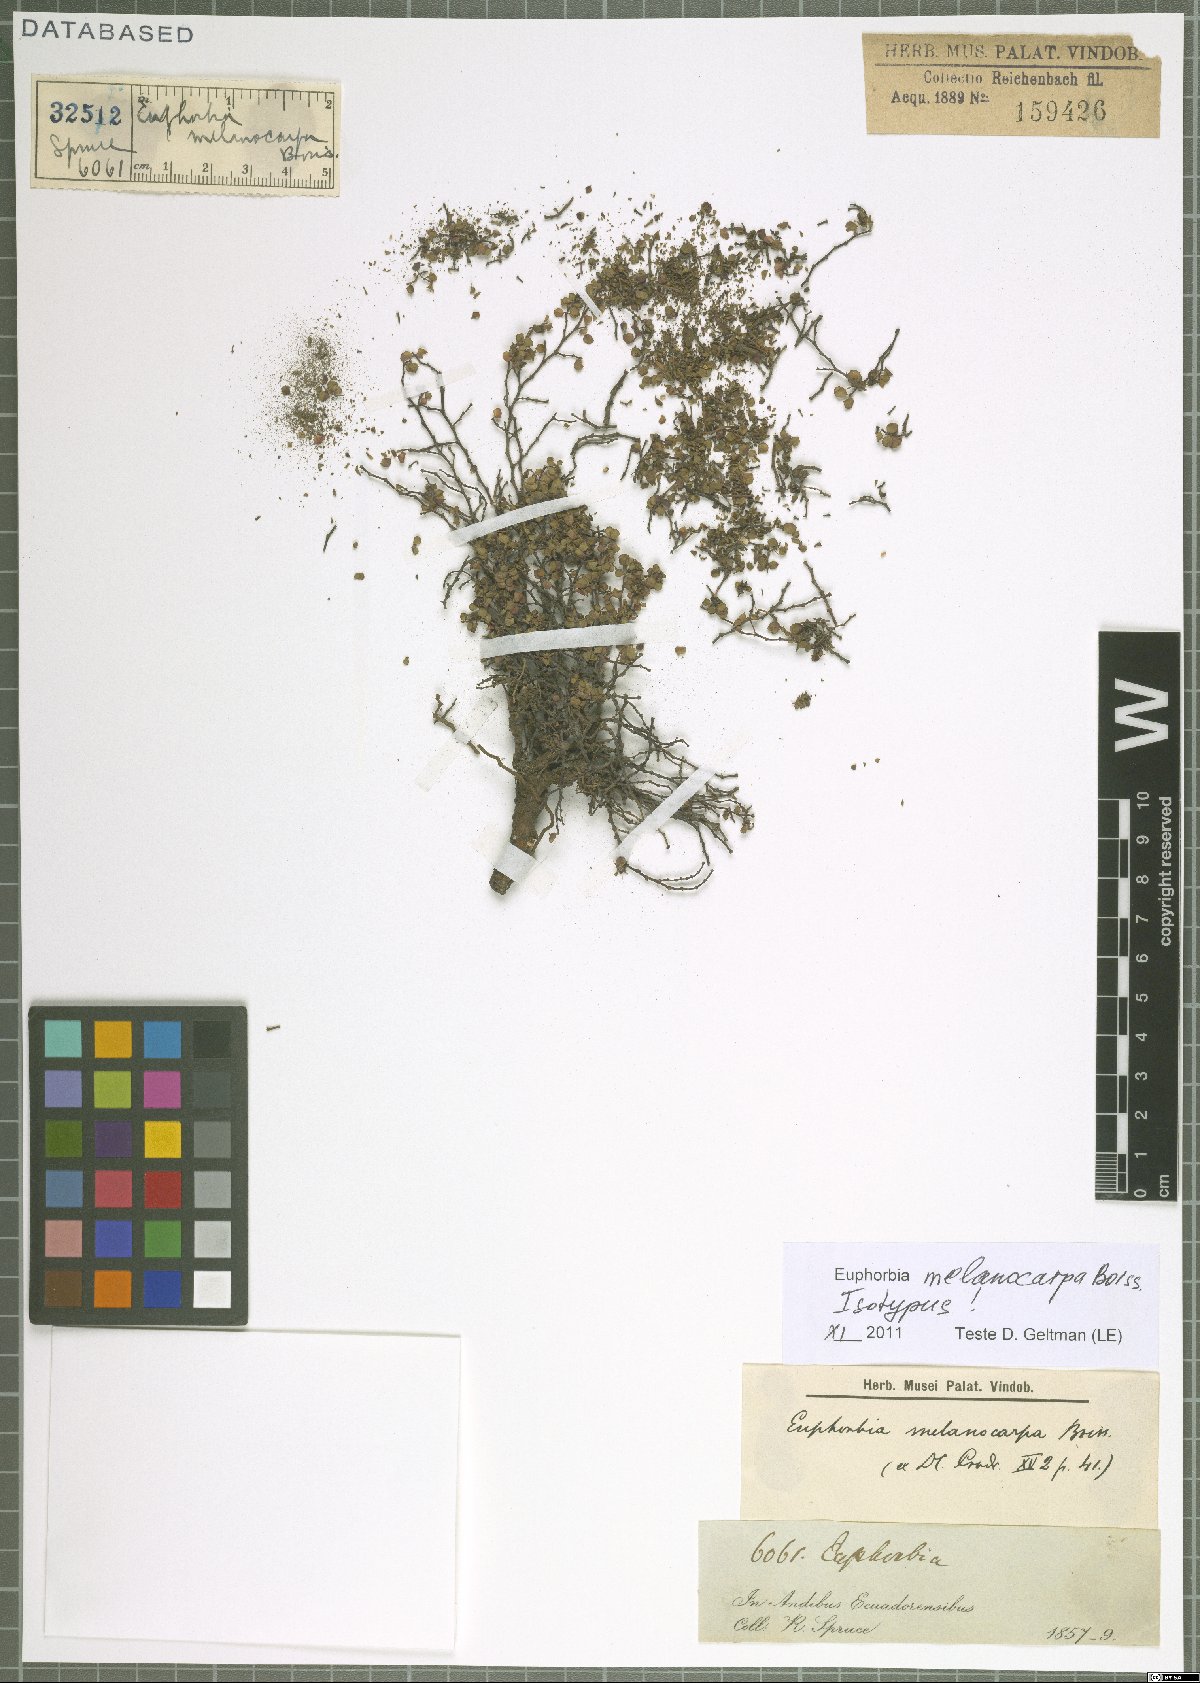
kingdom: Plantae
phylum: Tracheophyta
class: Magnoliopsida
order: Malpighiales
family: Euphorbiaceae
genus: Euphorbia
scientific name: Euphorbia melanocarpa
